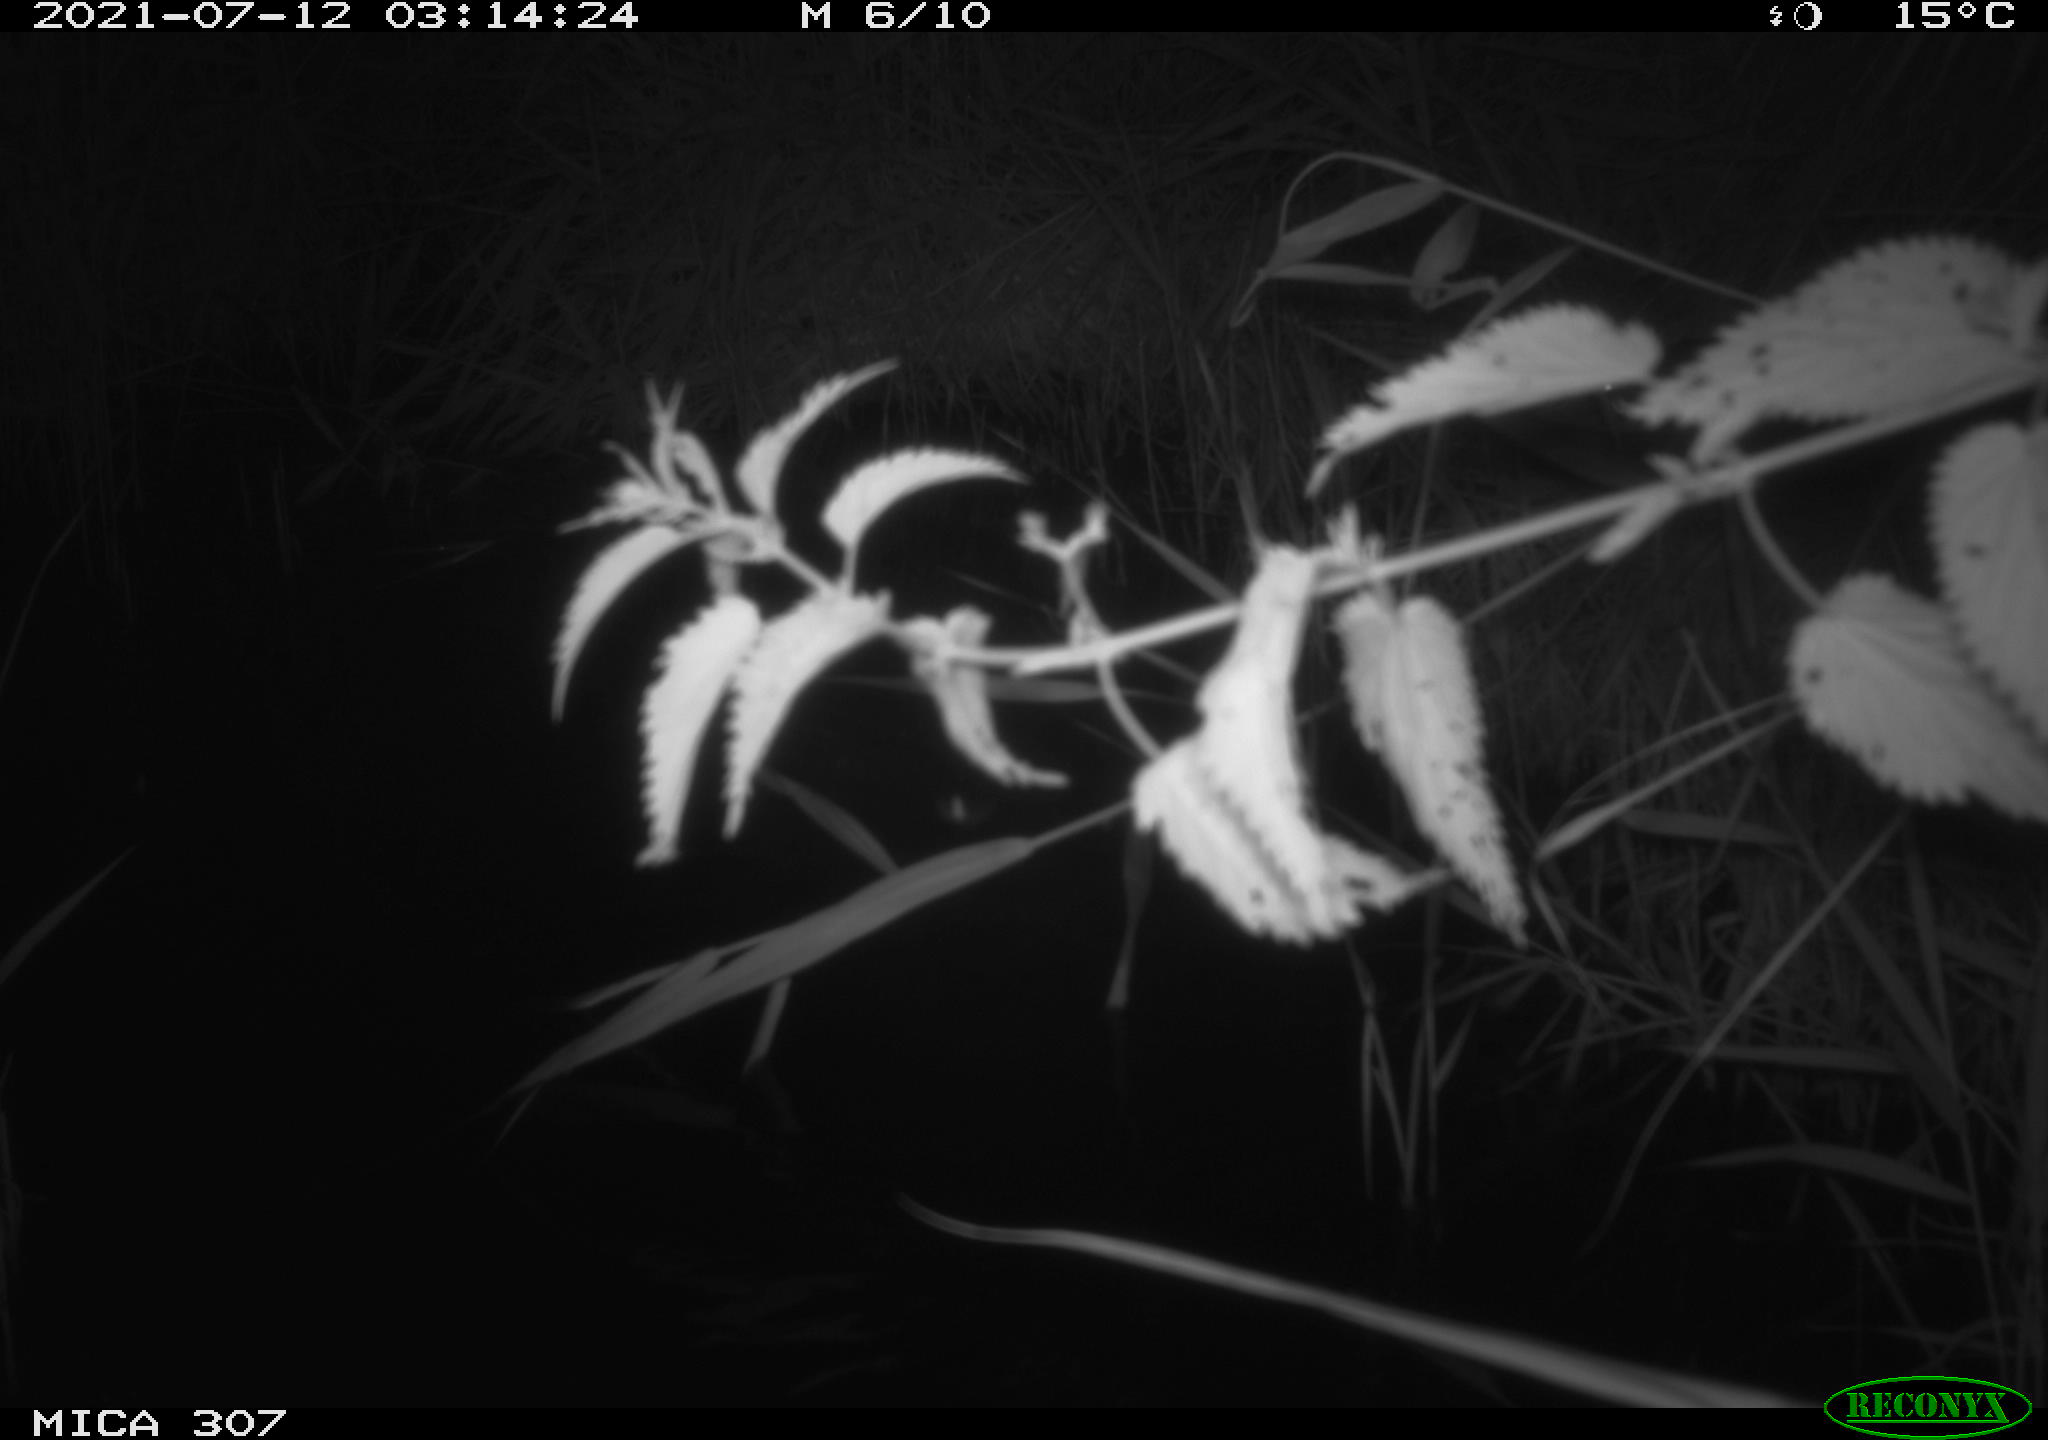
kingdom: Animalia
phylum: Chordata
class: Mammalia
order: Rodentia
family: Muridae
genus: Rattus
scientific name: Rattus norvegicus
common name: Brown rat
